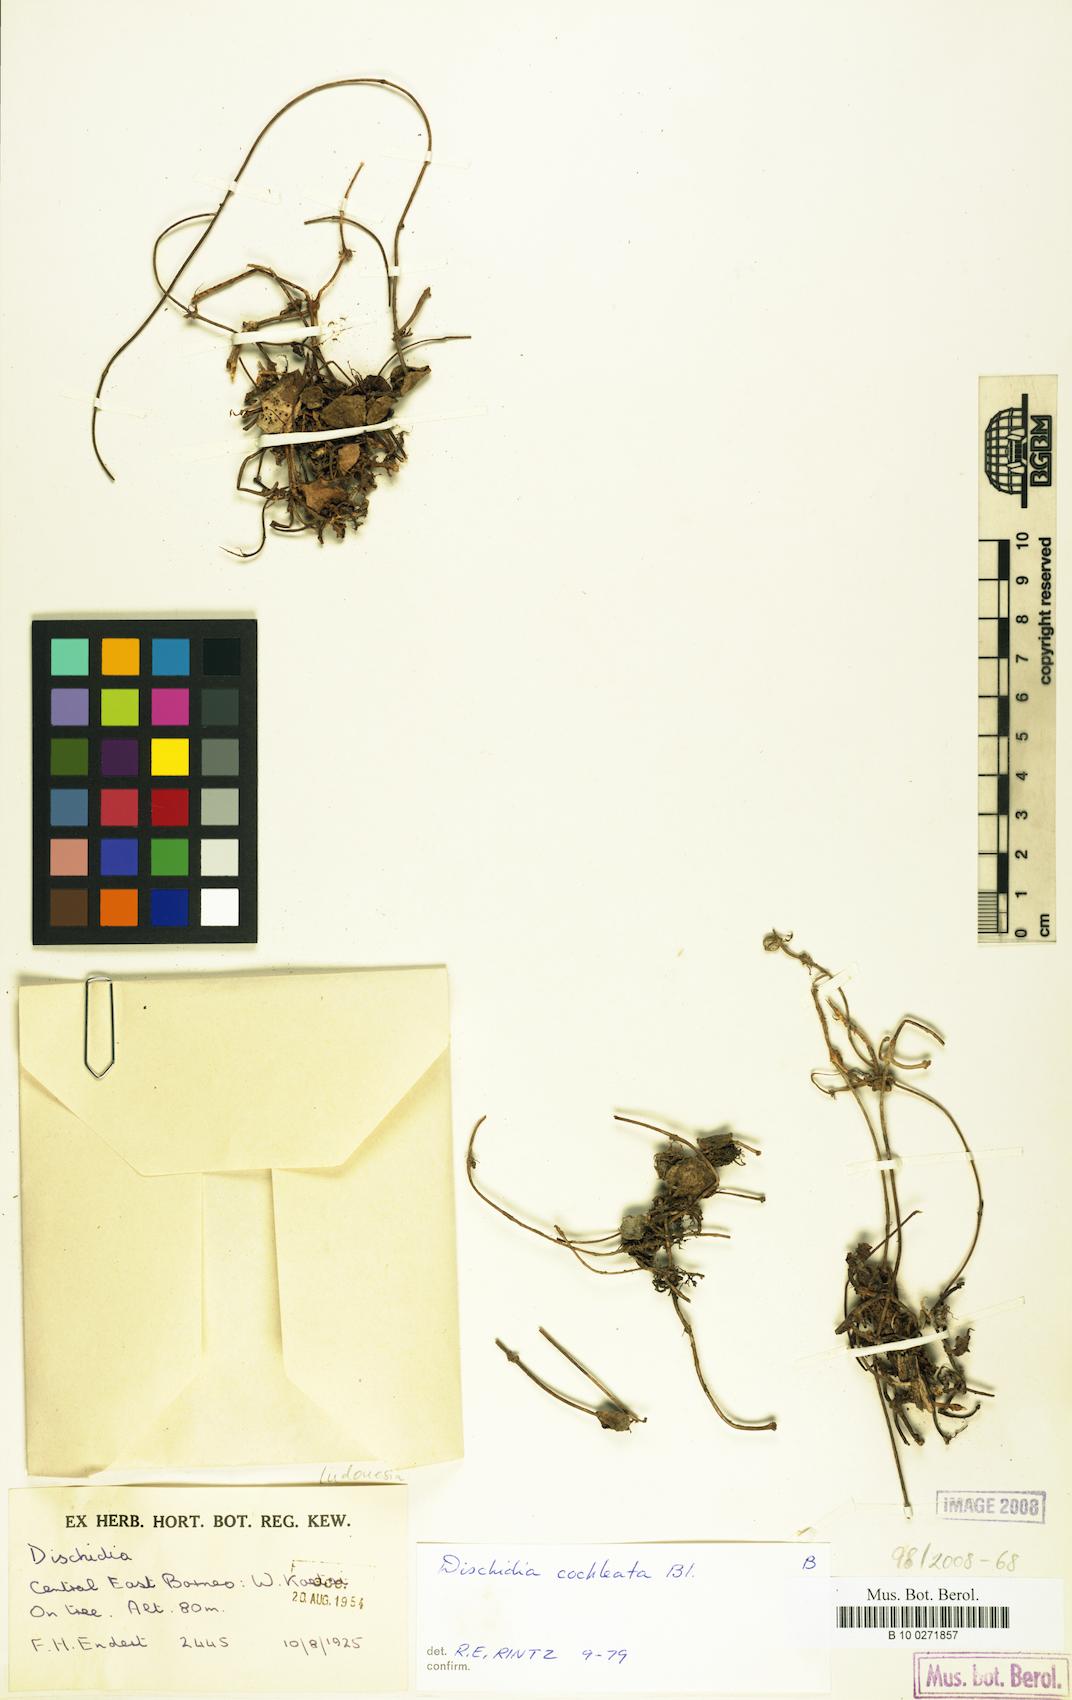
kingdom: Plantae
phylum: Tracheophyta
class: Magnoliopsida
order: Gentianales
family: Apocynaceae
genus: Dischidia
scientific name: Dischidia cochleata
